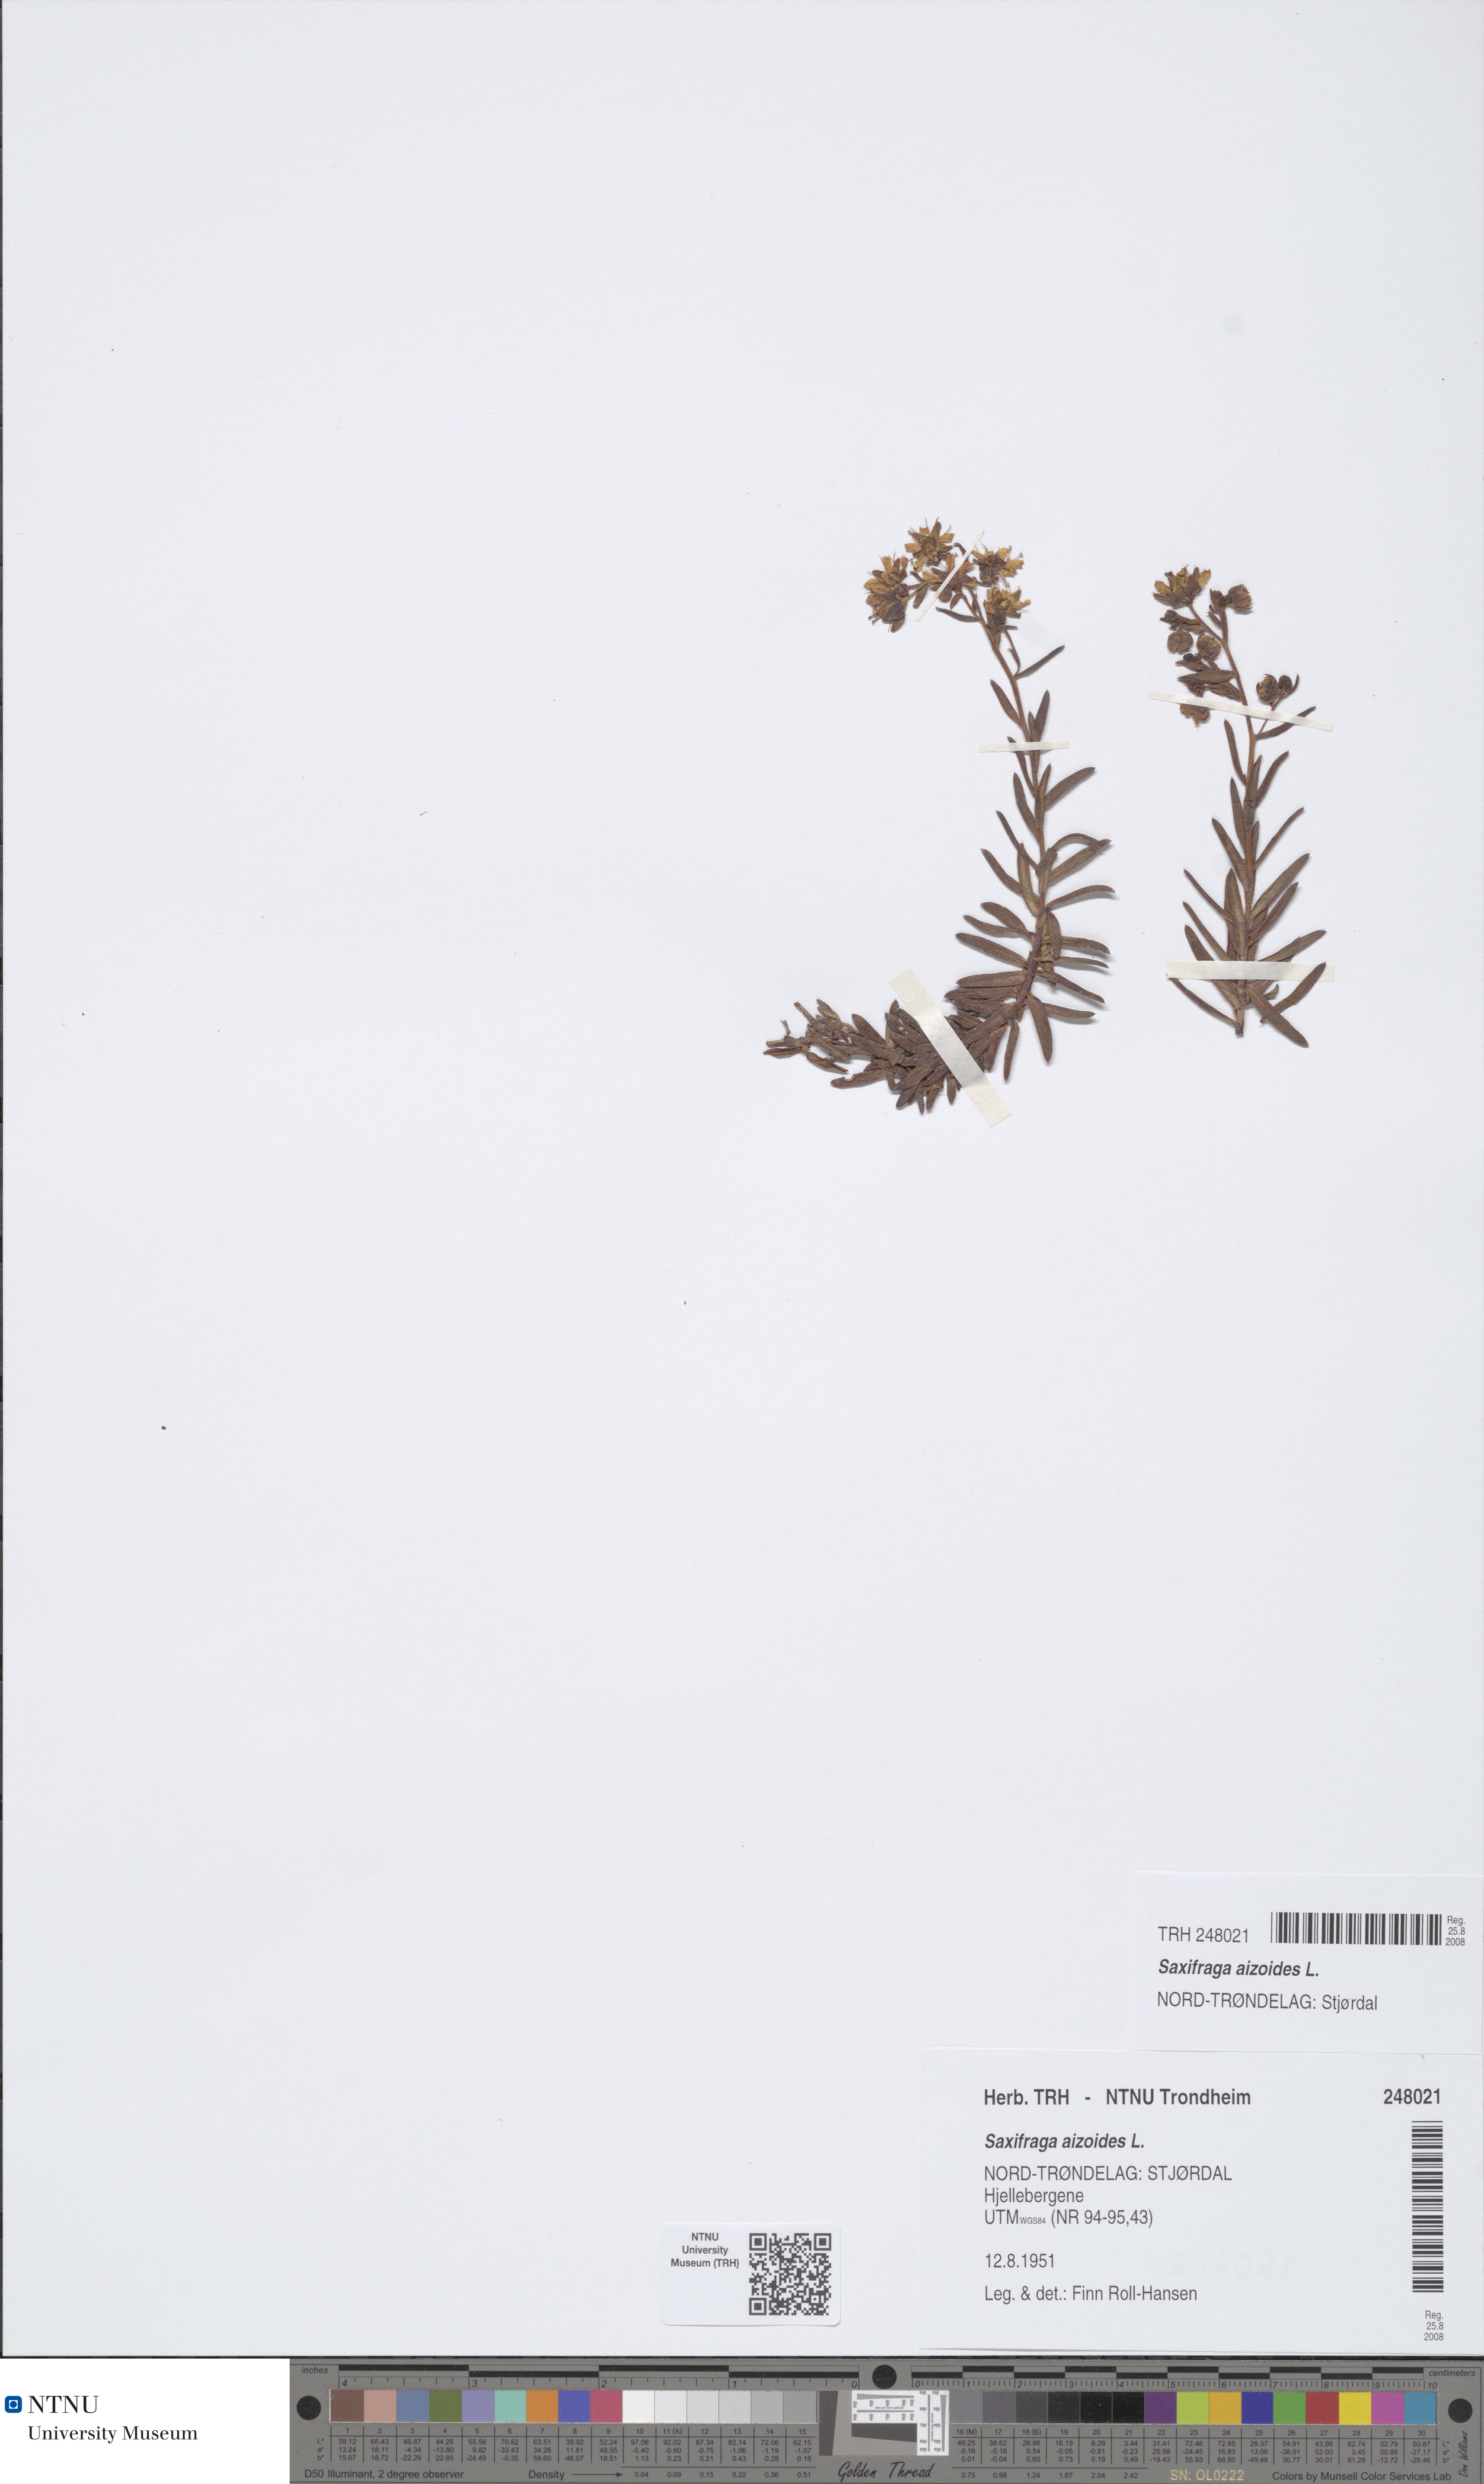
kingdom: Plantae
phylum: Tracheophyta
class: Magnoliopsida
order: Saxifragales
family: Saxifragaceae
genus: Saxifraga
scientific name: Saxifraga aizoides
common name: Yellow mountain saxifrage
